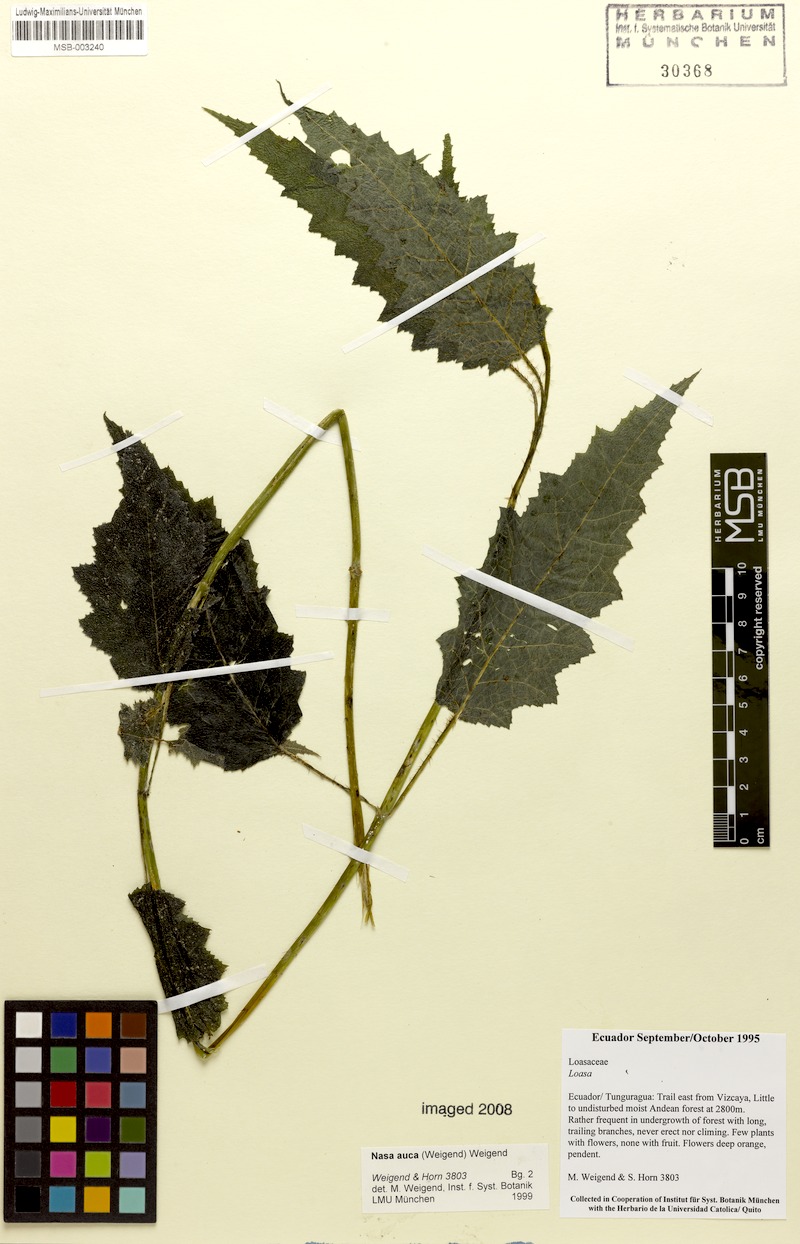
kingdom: Plantae
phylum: Tracheophyta
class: Magnoliopsida
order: Cornales
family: Loasaceae
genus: Nasa
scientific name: Nasa auca
